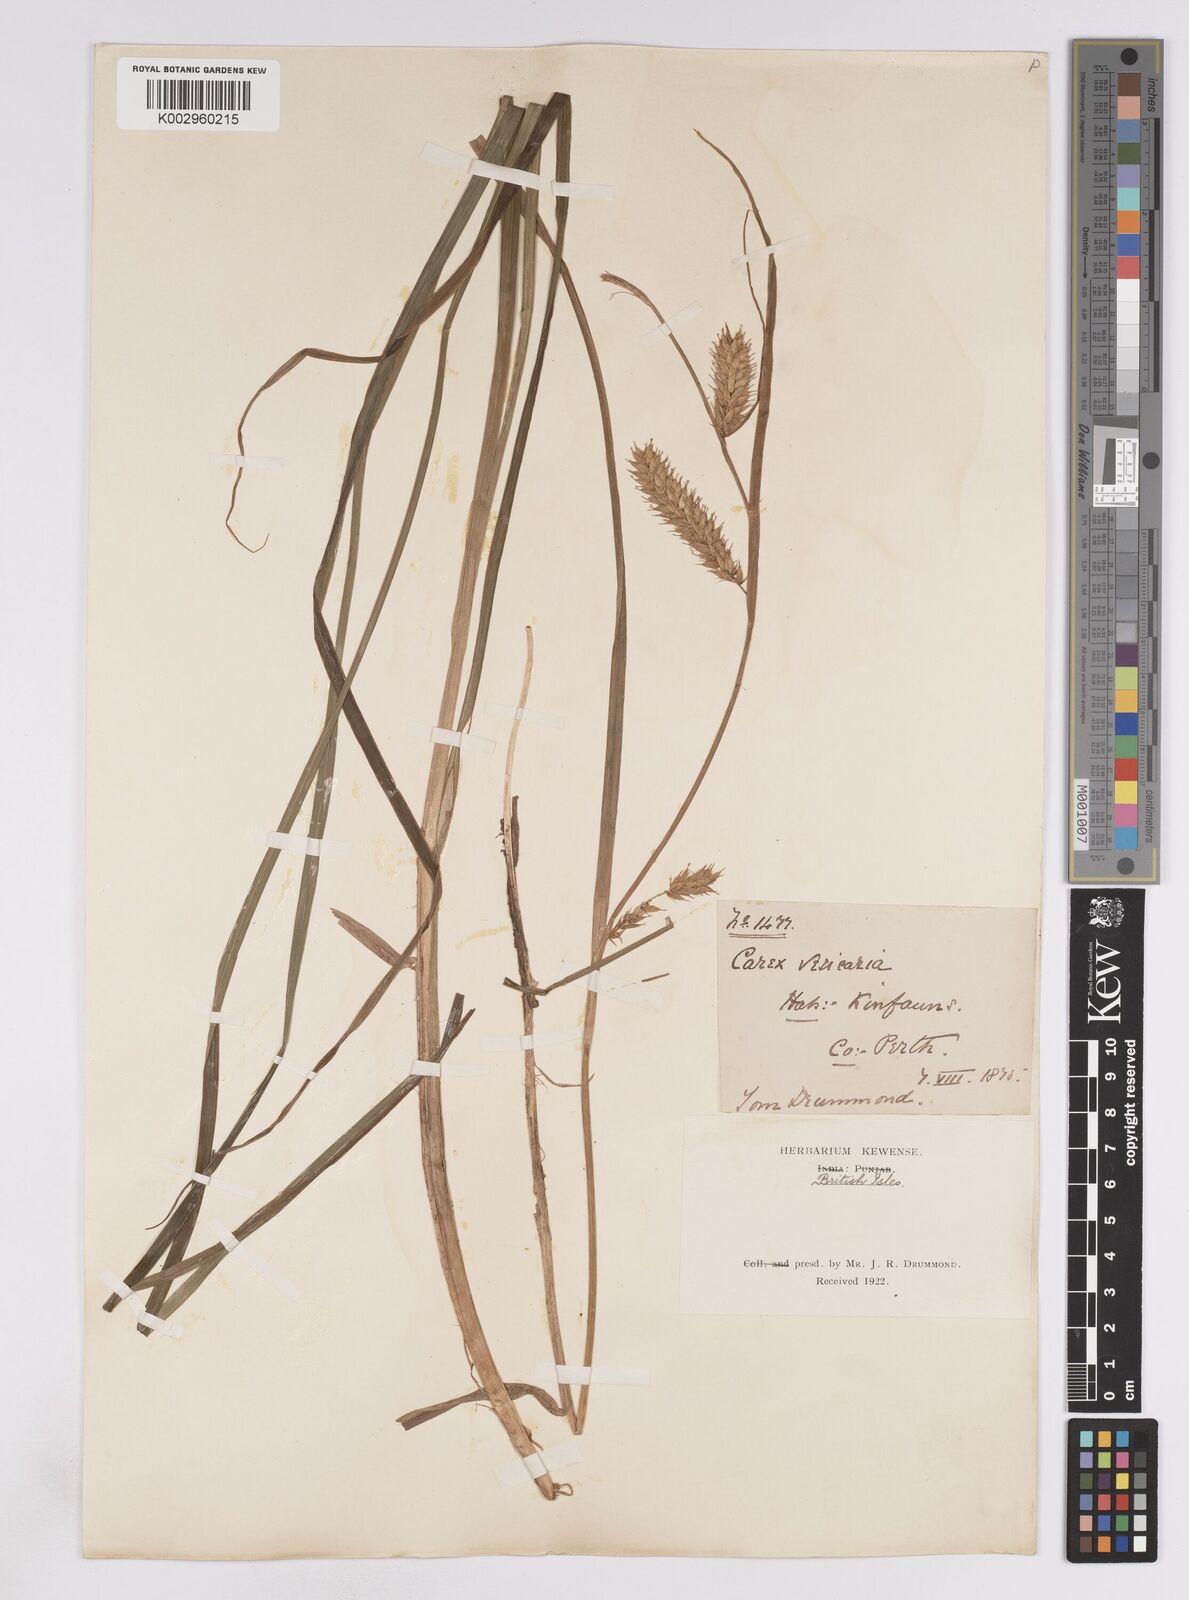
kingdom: Plantae
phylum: Tracheophyta
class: Liliopsida
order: Poales
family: Cyperaceae
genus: Carex
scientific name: Carex vesicaria
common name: Bladder-sedge
